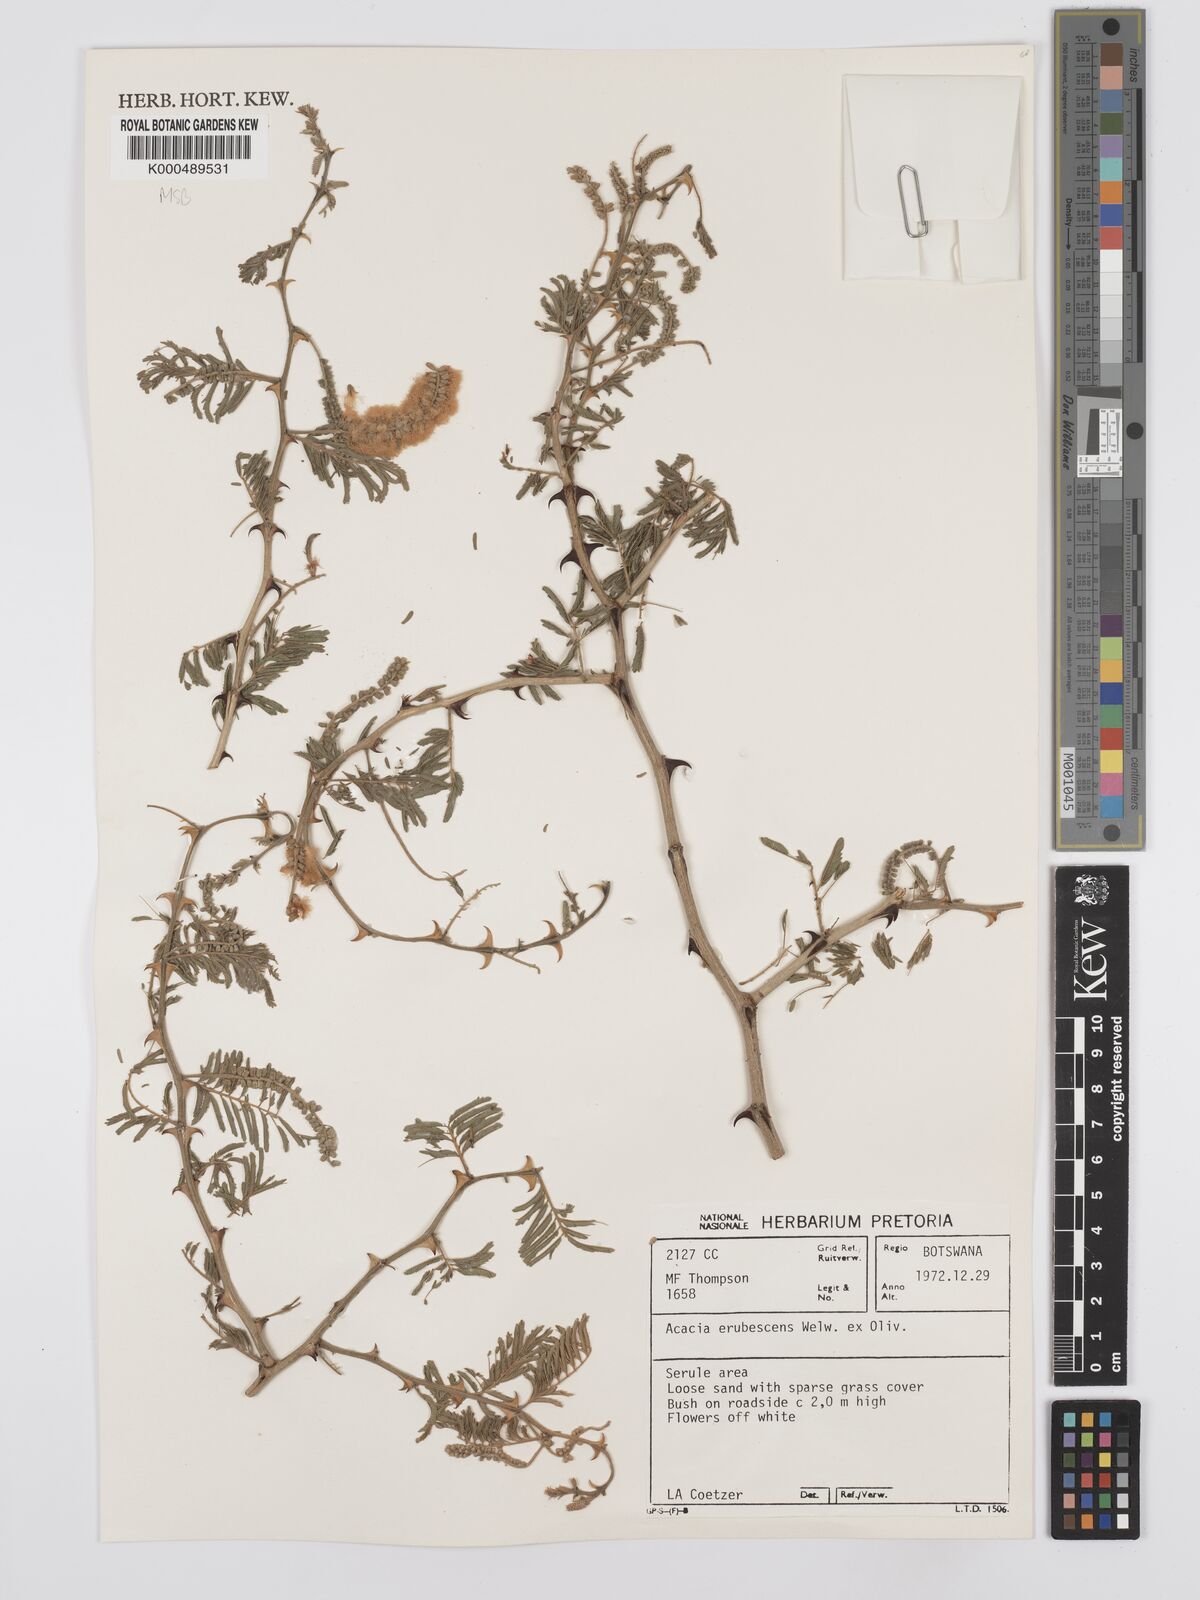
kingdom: Plantae
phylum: Tracheophyta
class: Magnoliopsida
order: Fabales
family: Fabaceae
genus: Senegalia
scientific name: Senegalia erubescens
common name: Bluethorn
